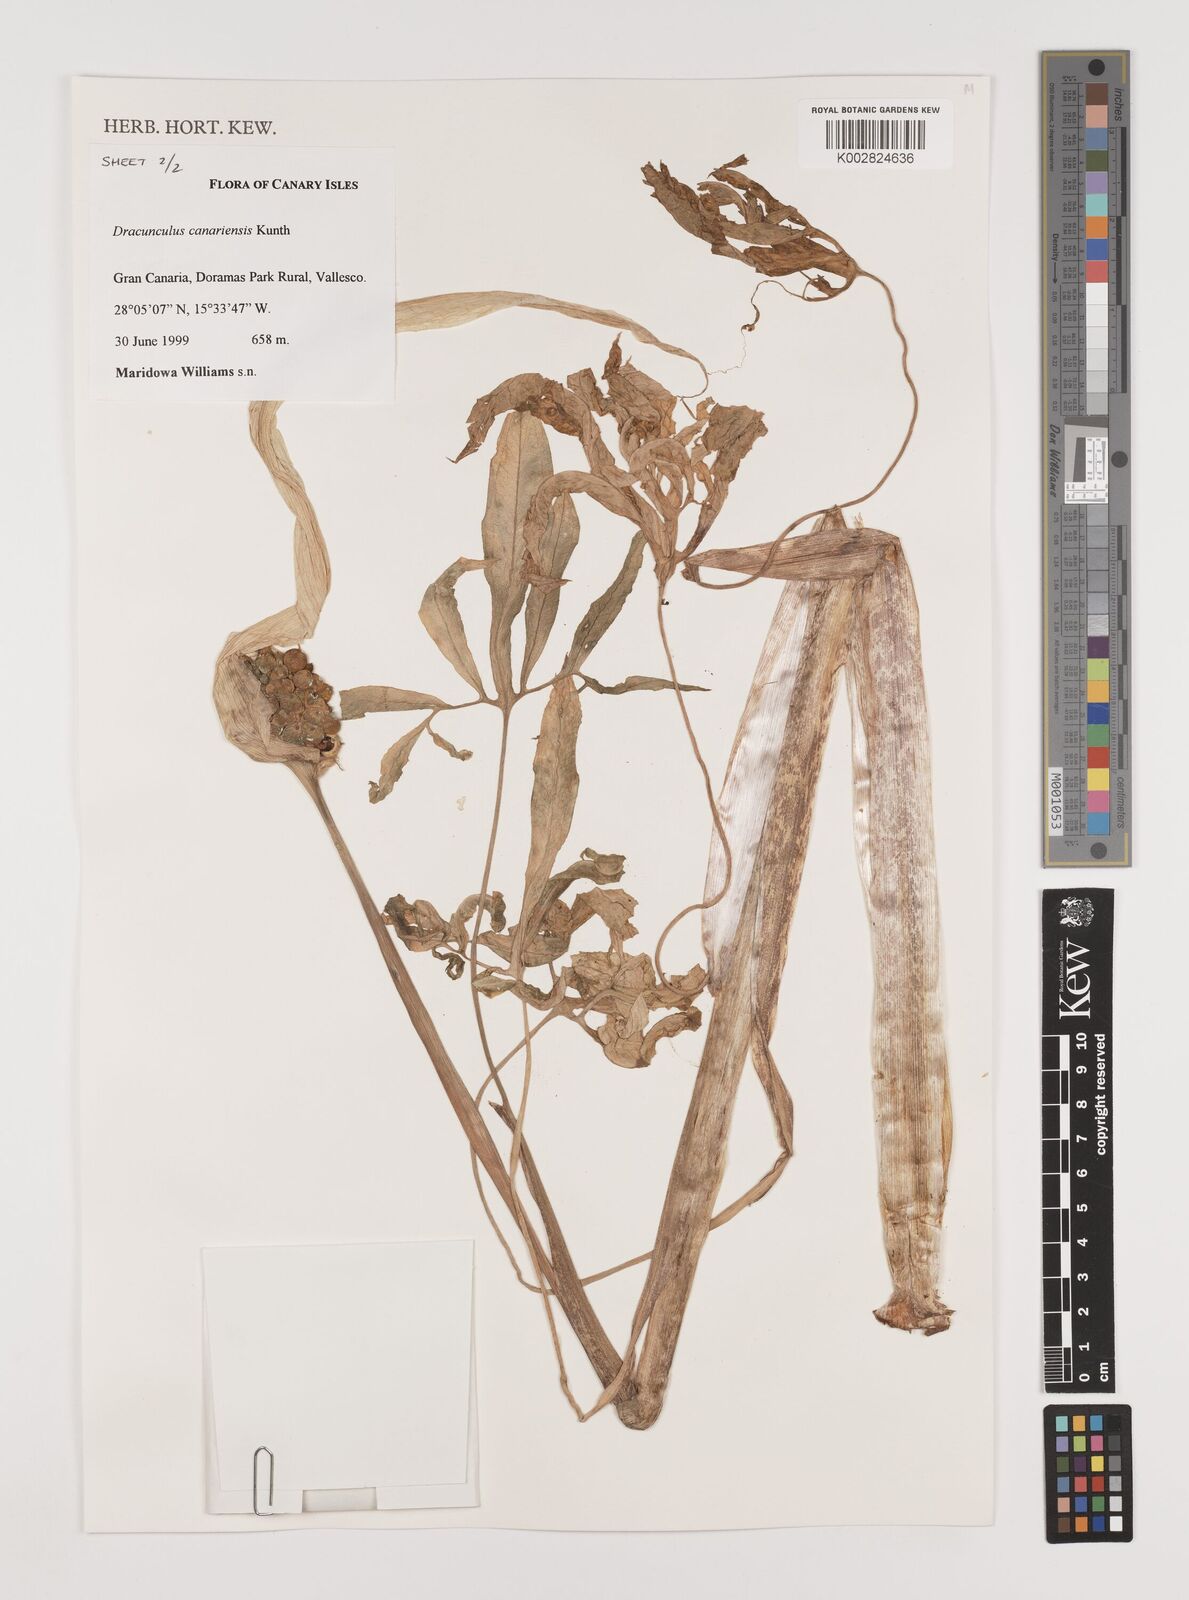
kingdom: Plantae
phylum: Tracheophyta
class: Liliopsida
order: Alismatales
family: Araceae
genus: Dracunculus
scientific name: Dracunculus
